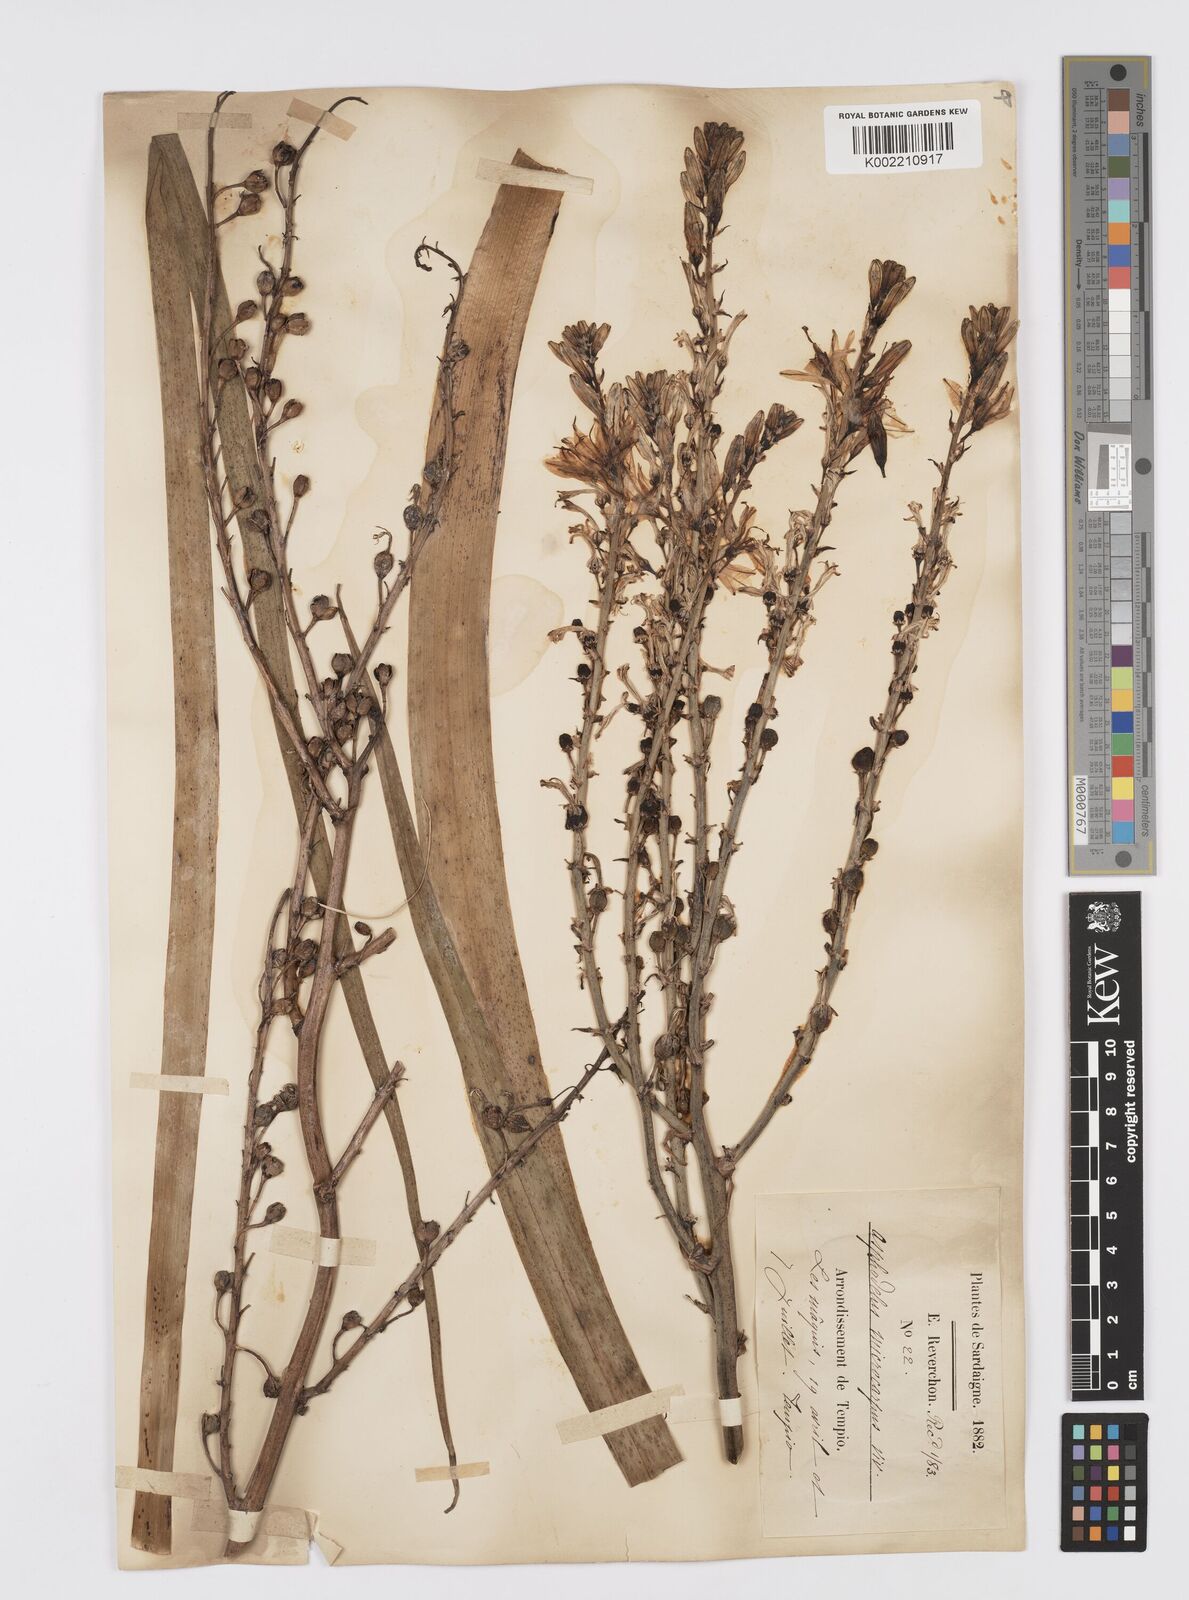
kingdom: Plantae
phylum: Tracheophyta
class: Liliopsida
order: Asparagales
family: Asphodelaceae
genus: Asphodelus
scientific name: Asphodelus ramosus
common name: Silverrod
